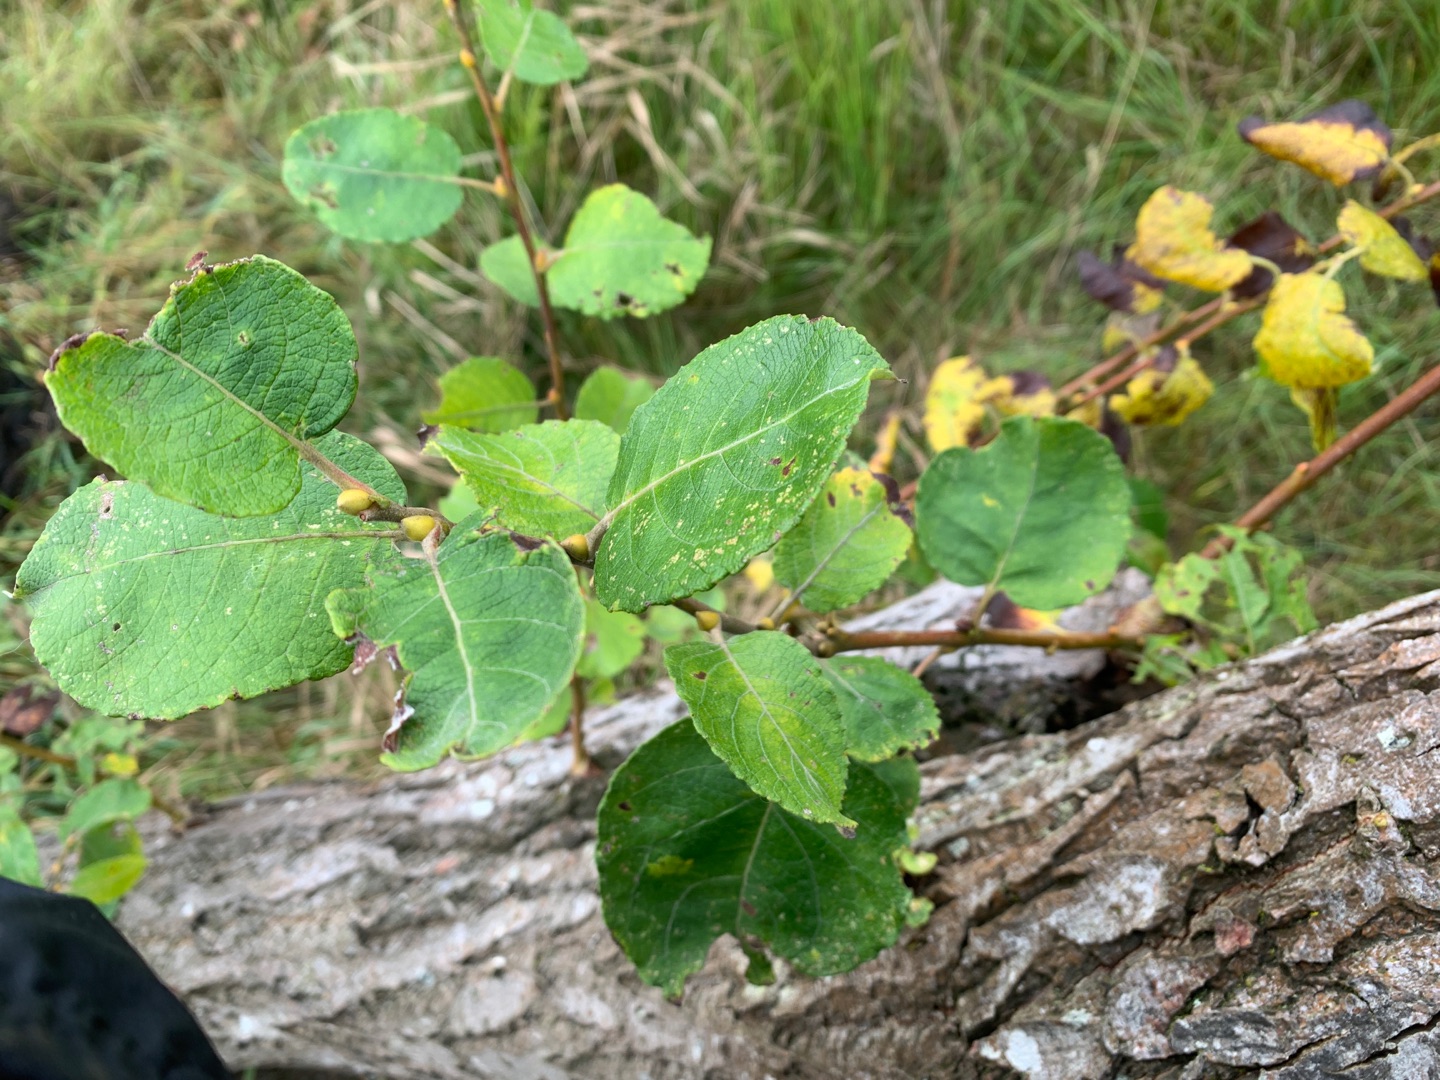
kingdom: Plantae
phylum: Tracheophyta
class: Magnoliopsida
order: Malpighiales
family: Salicaceae
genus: Salix
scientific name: Salix caprea
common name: Selje-pil
